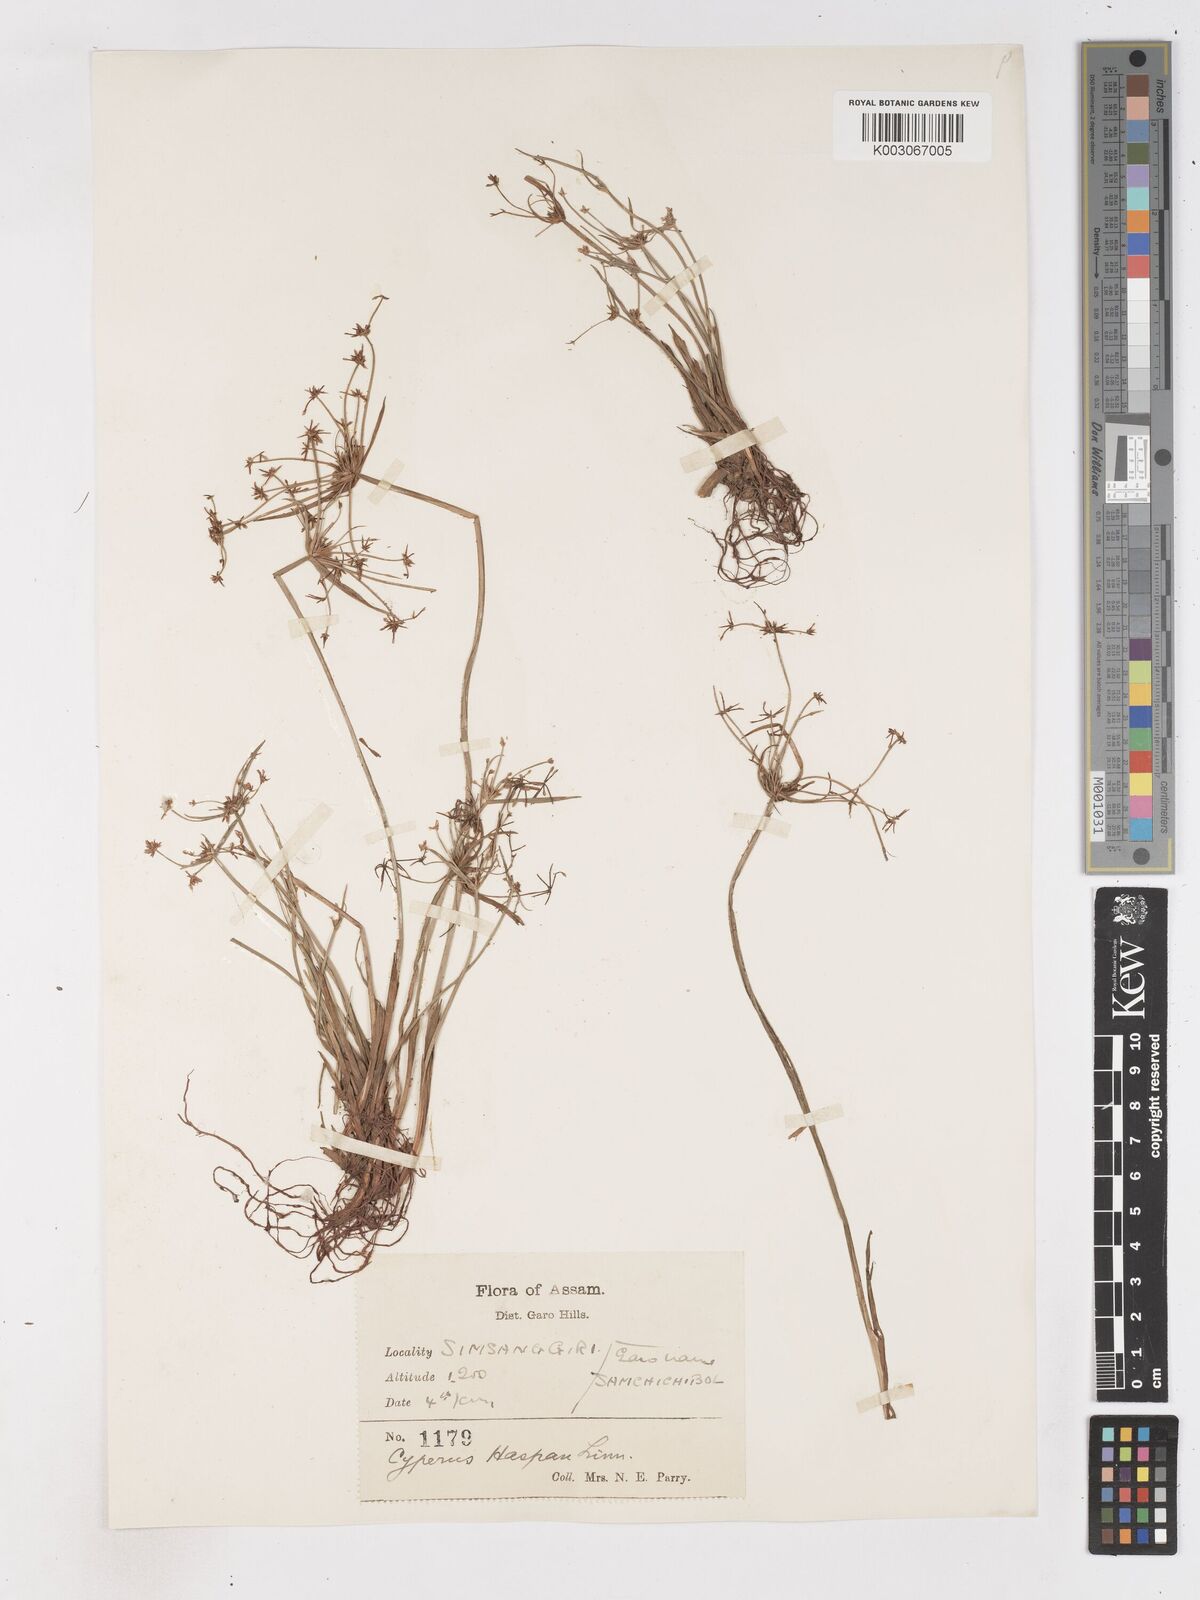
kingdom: Plantae
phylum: Tracheophyta
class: Liliopsida
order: Poales
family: Cyperaceae
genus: Cyperus
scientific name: Cyperus haspan
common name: Haspan flatsedge
